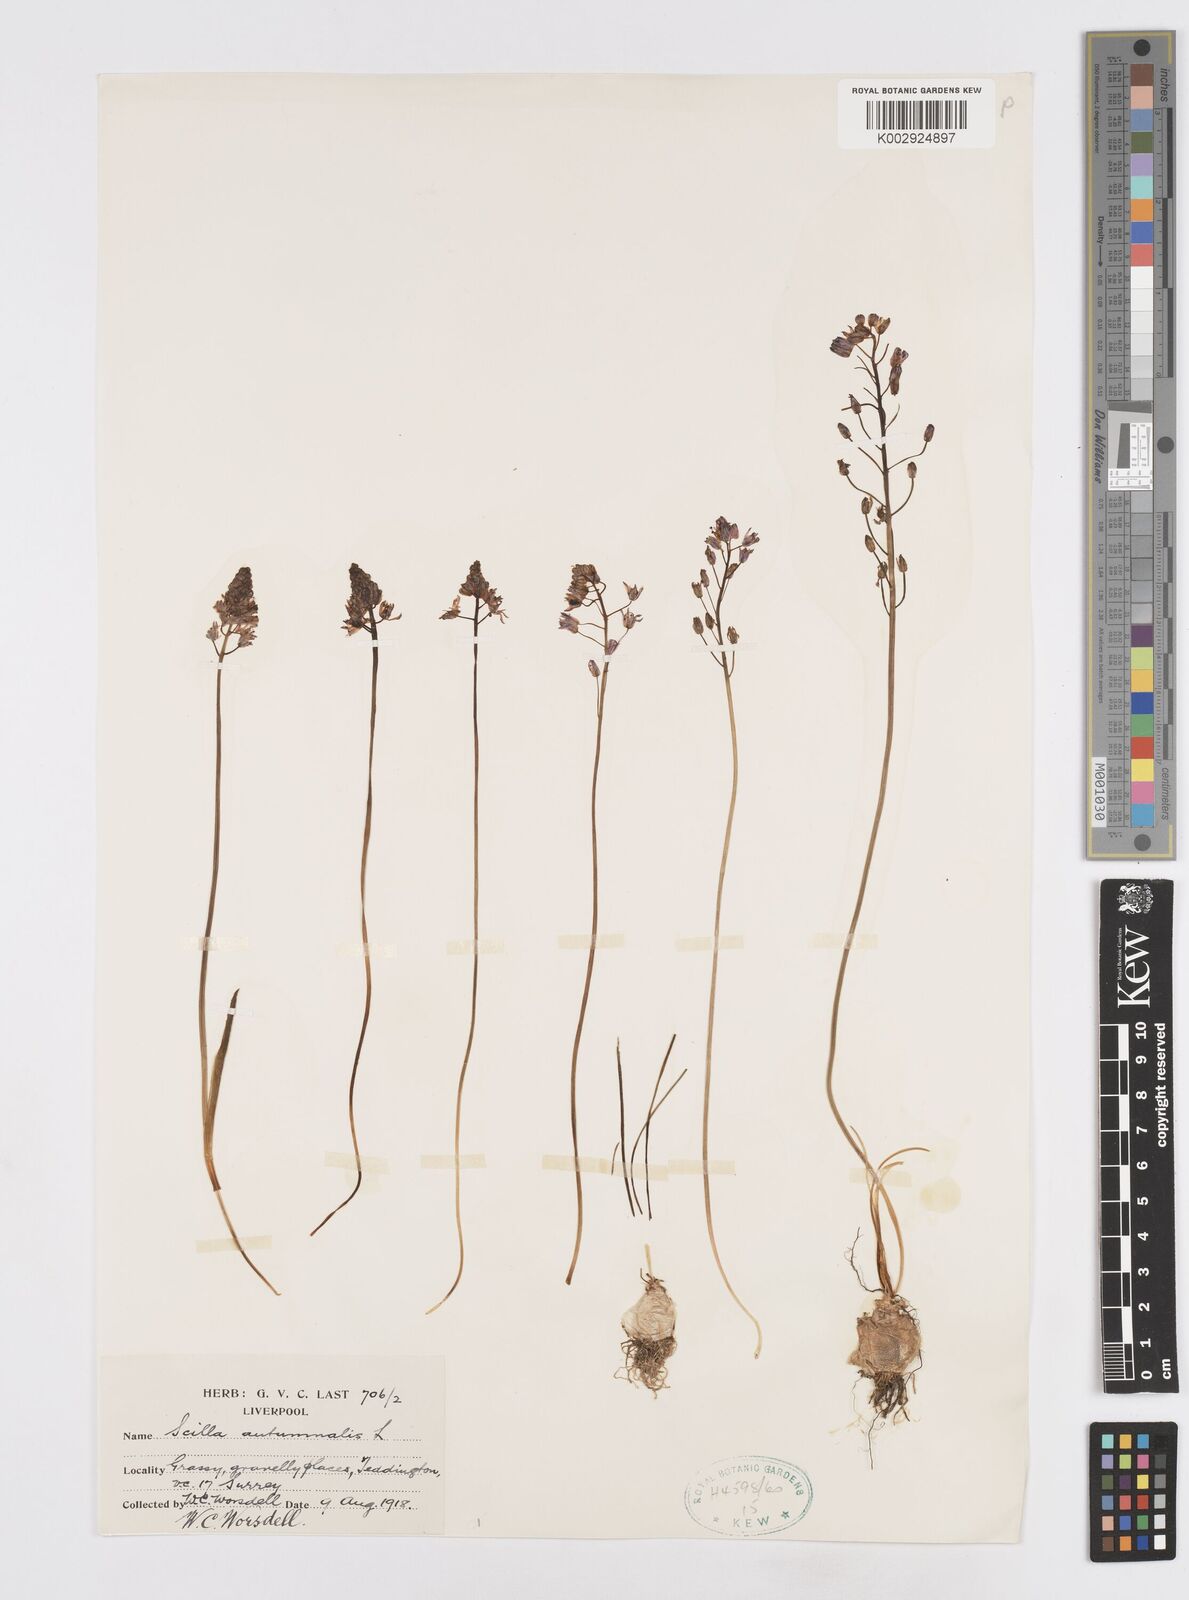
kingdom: Plantae
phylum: Tracheophyta
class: Liliopsida
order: Asparagales
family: Asparagaceae
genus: Prospero
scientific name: Prospero autumnale
